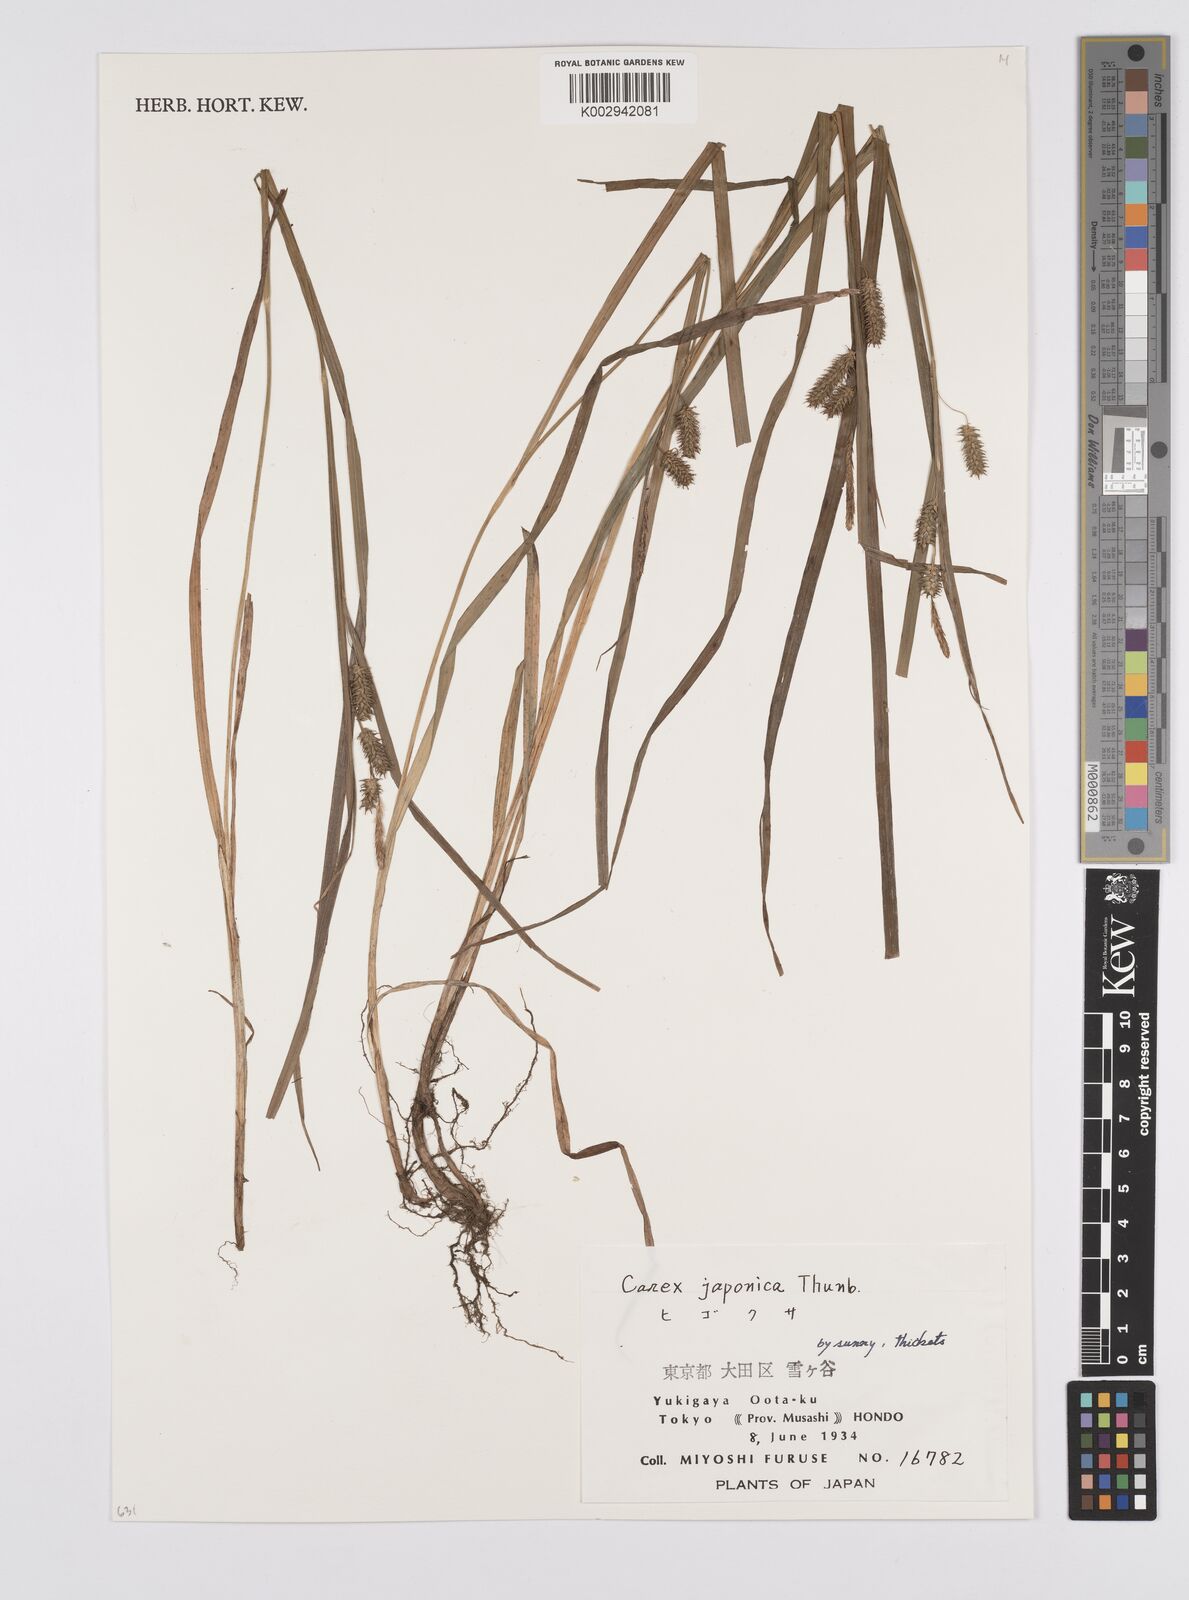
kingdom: Plantae
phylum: Tracheophyta
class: Liliopsida
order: Poales
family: Cyperaceae
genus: Carex
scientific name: Carex japonica
